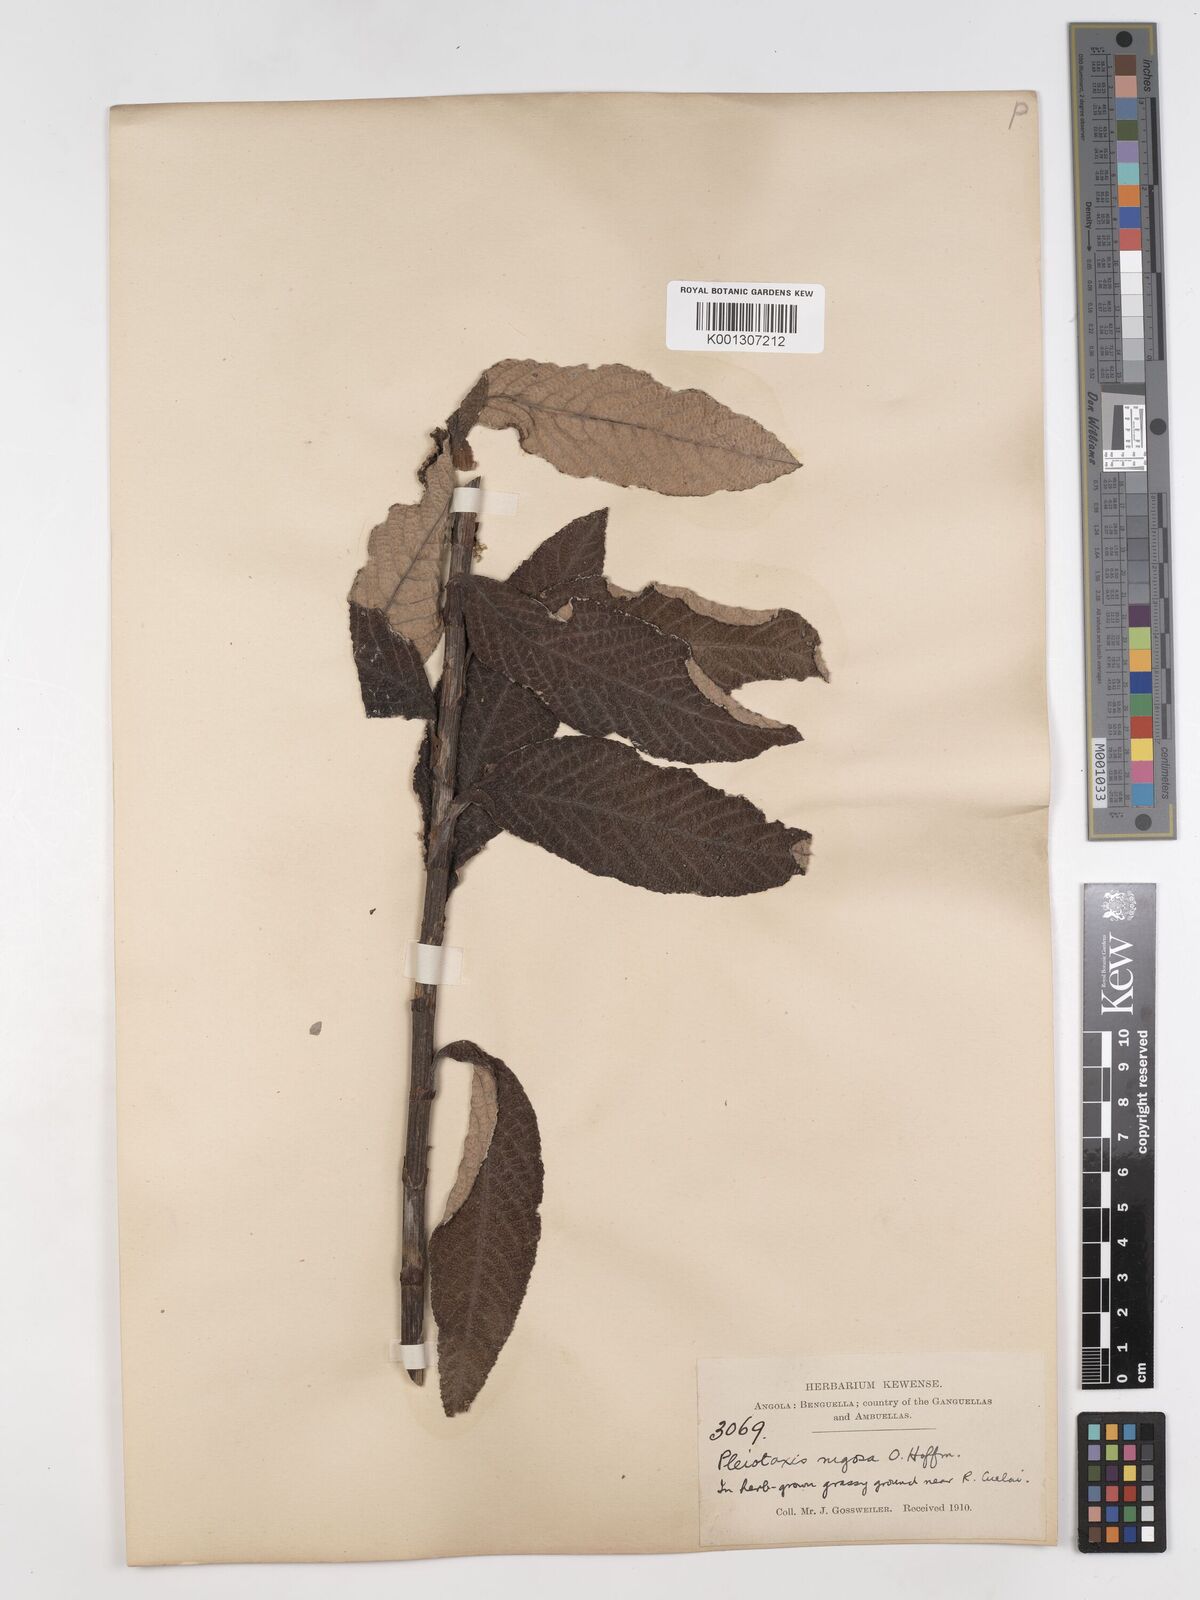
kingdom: Plantae
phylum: Tracheophyta
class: Magnoliopsida
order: Asterales
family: Asteraceae
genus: Pleiotaxis
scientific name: Pleiotaxis rugosa
